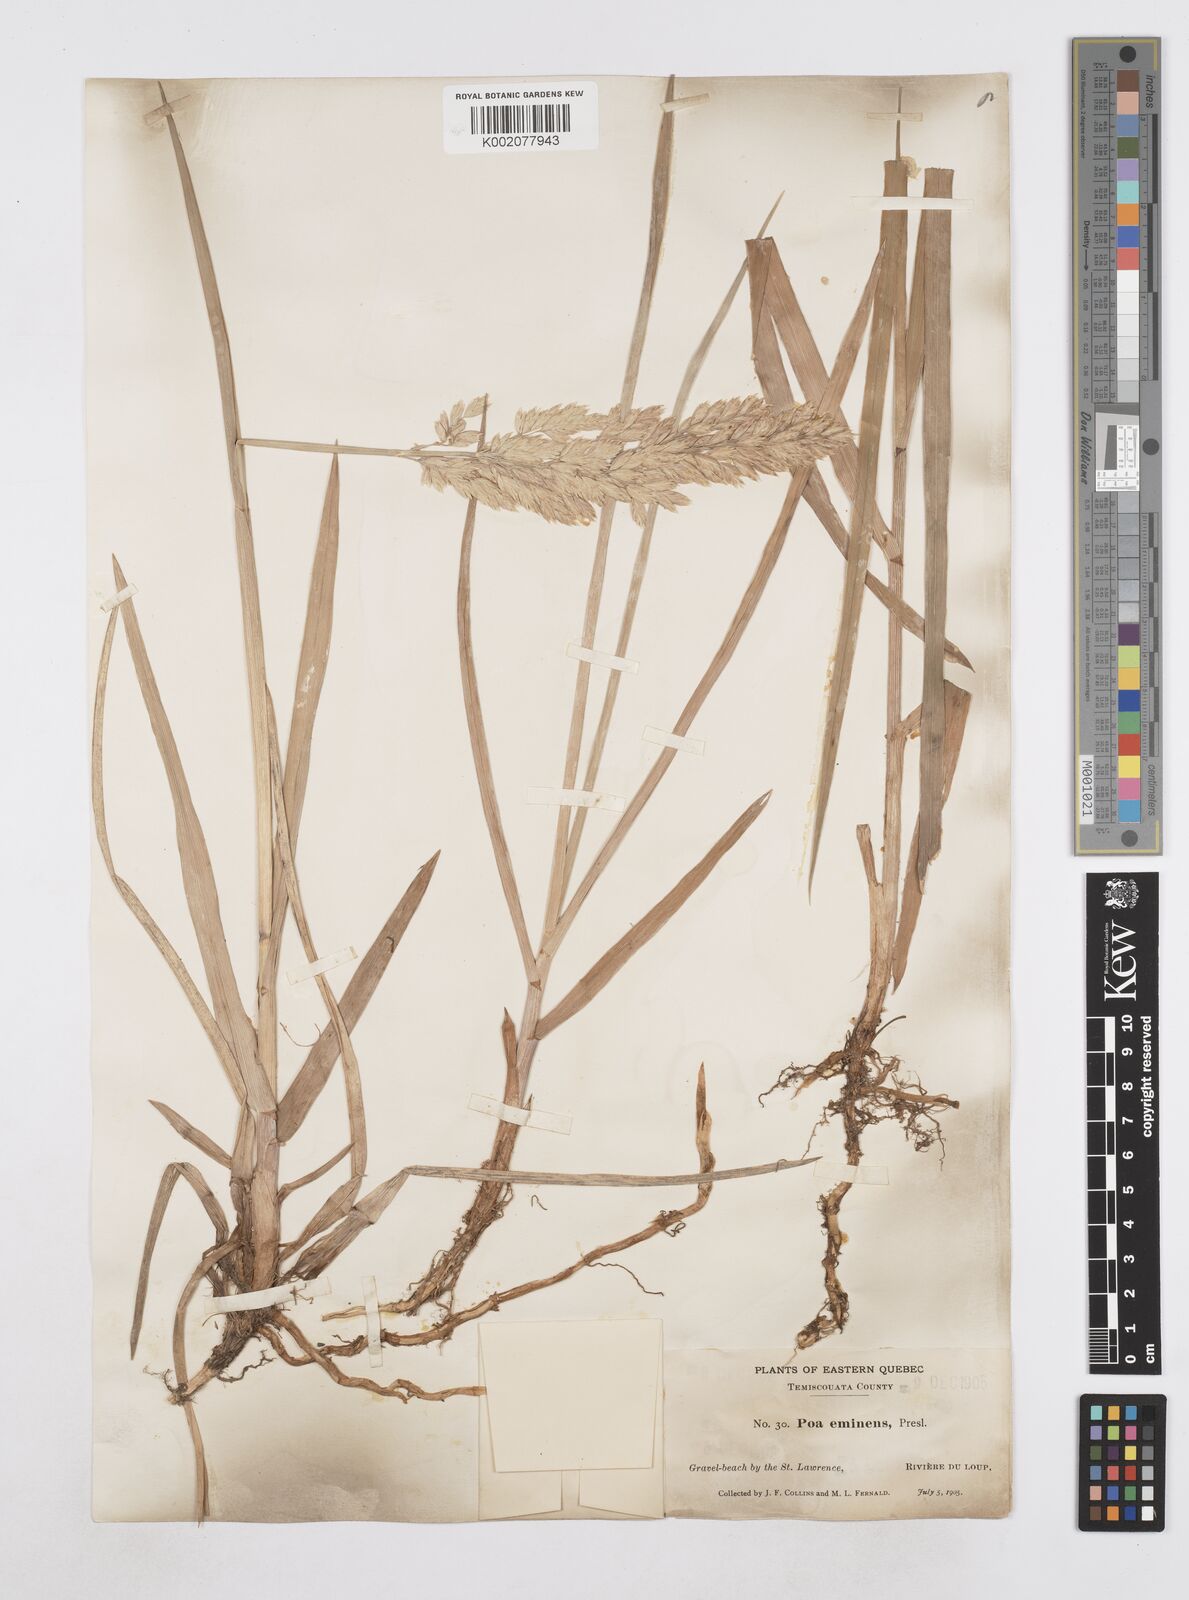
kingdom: Plantae
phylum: Tracheophyta
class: Liliopsida
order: Poales
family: Poaceae
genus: Arctopoa
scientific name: Arctopoa eminens
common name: Eminent bluegrass
